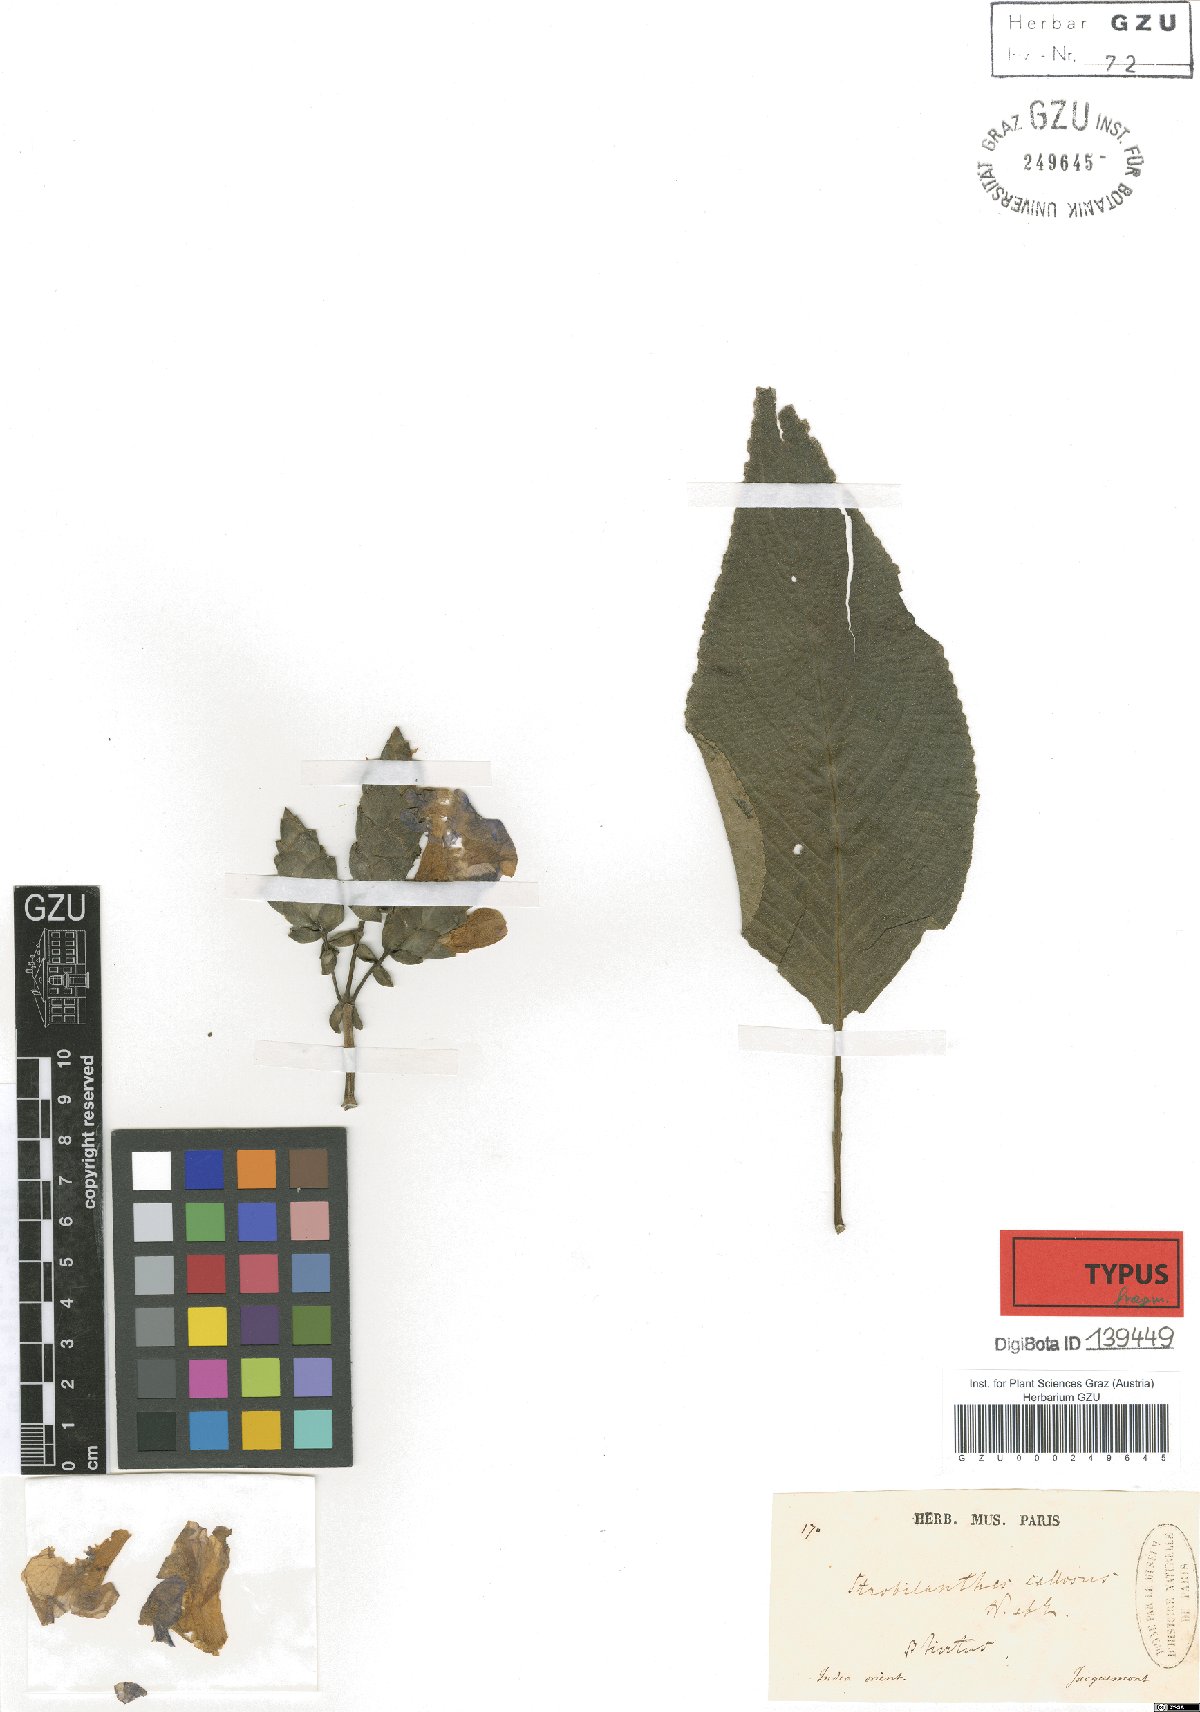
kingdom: Plantae
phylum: Tracheophyta
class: Magnoliopsida
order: Lamiales
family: Acanthaceae
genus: Strobilanthes
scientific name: Strobilanthes callosa
